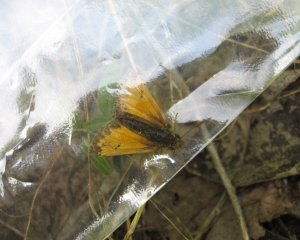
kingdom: Animalia
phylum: Arthropoda
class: Insecta
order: Lepidoptera
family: Hesperiidae
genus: Lon
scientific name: Lon hobomok
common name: Hobomok Skipper
